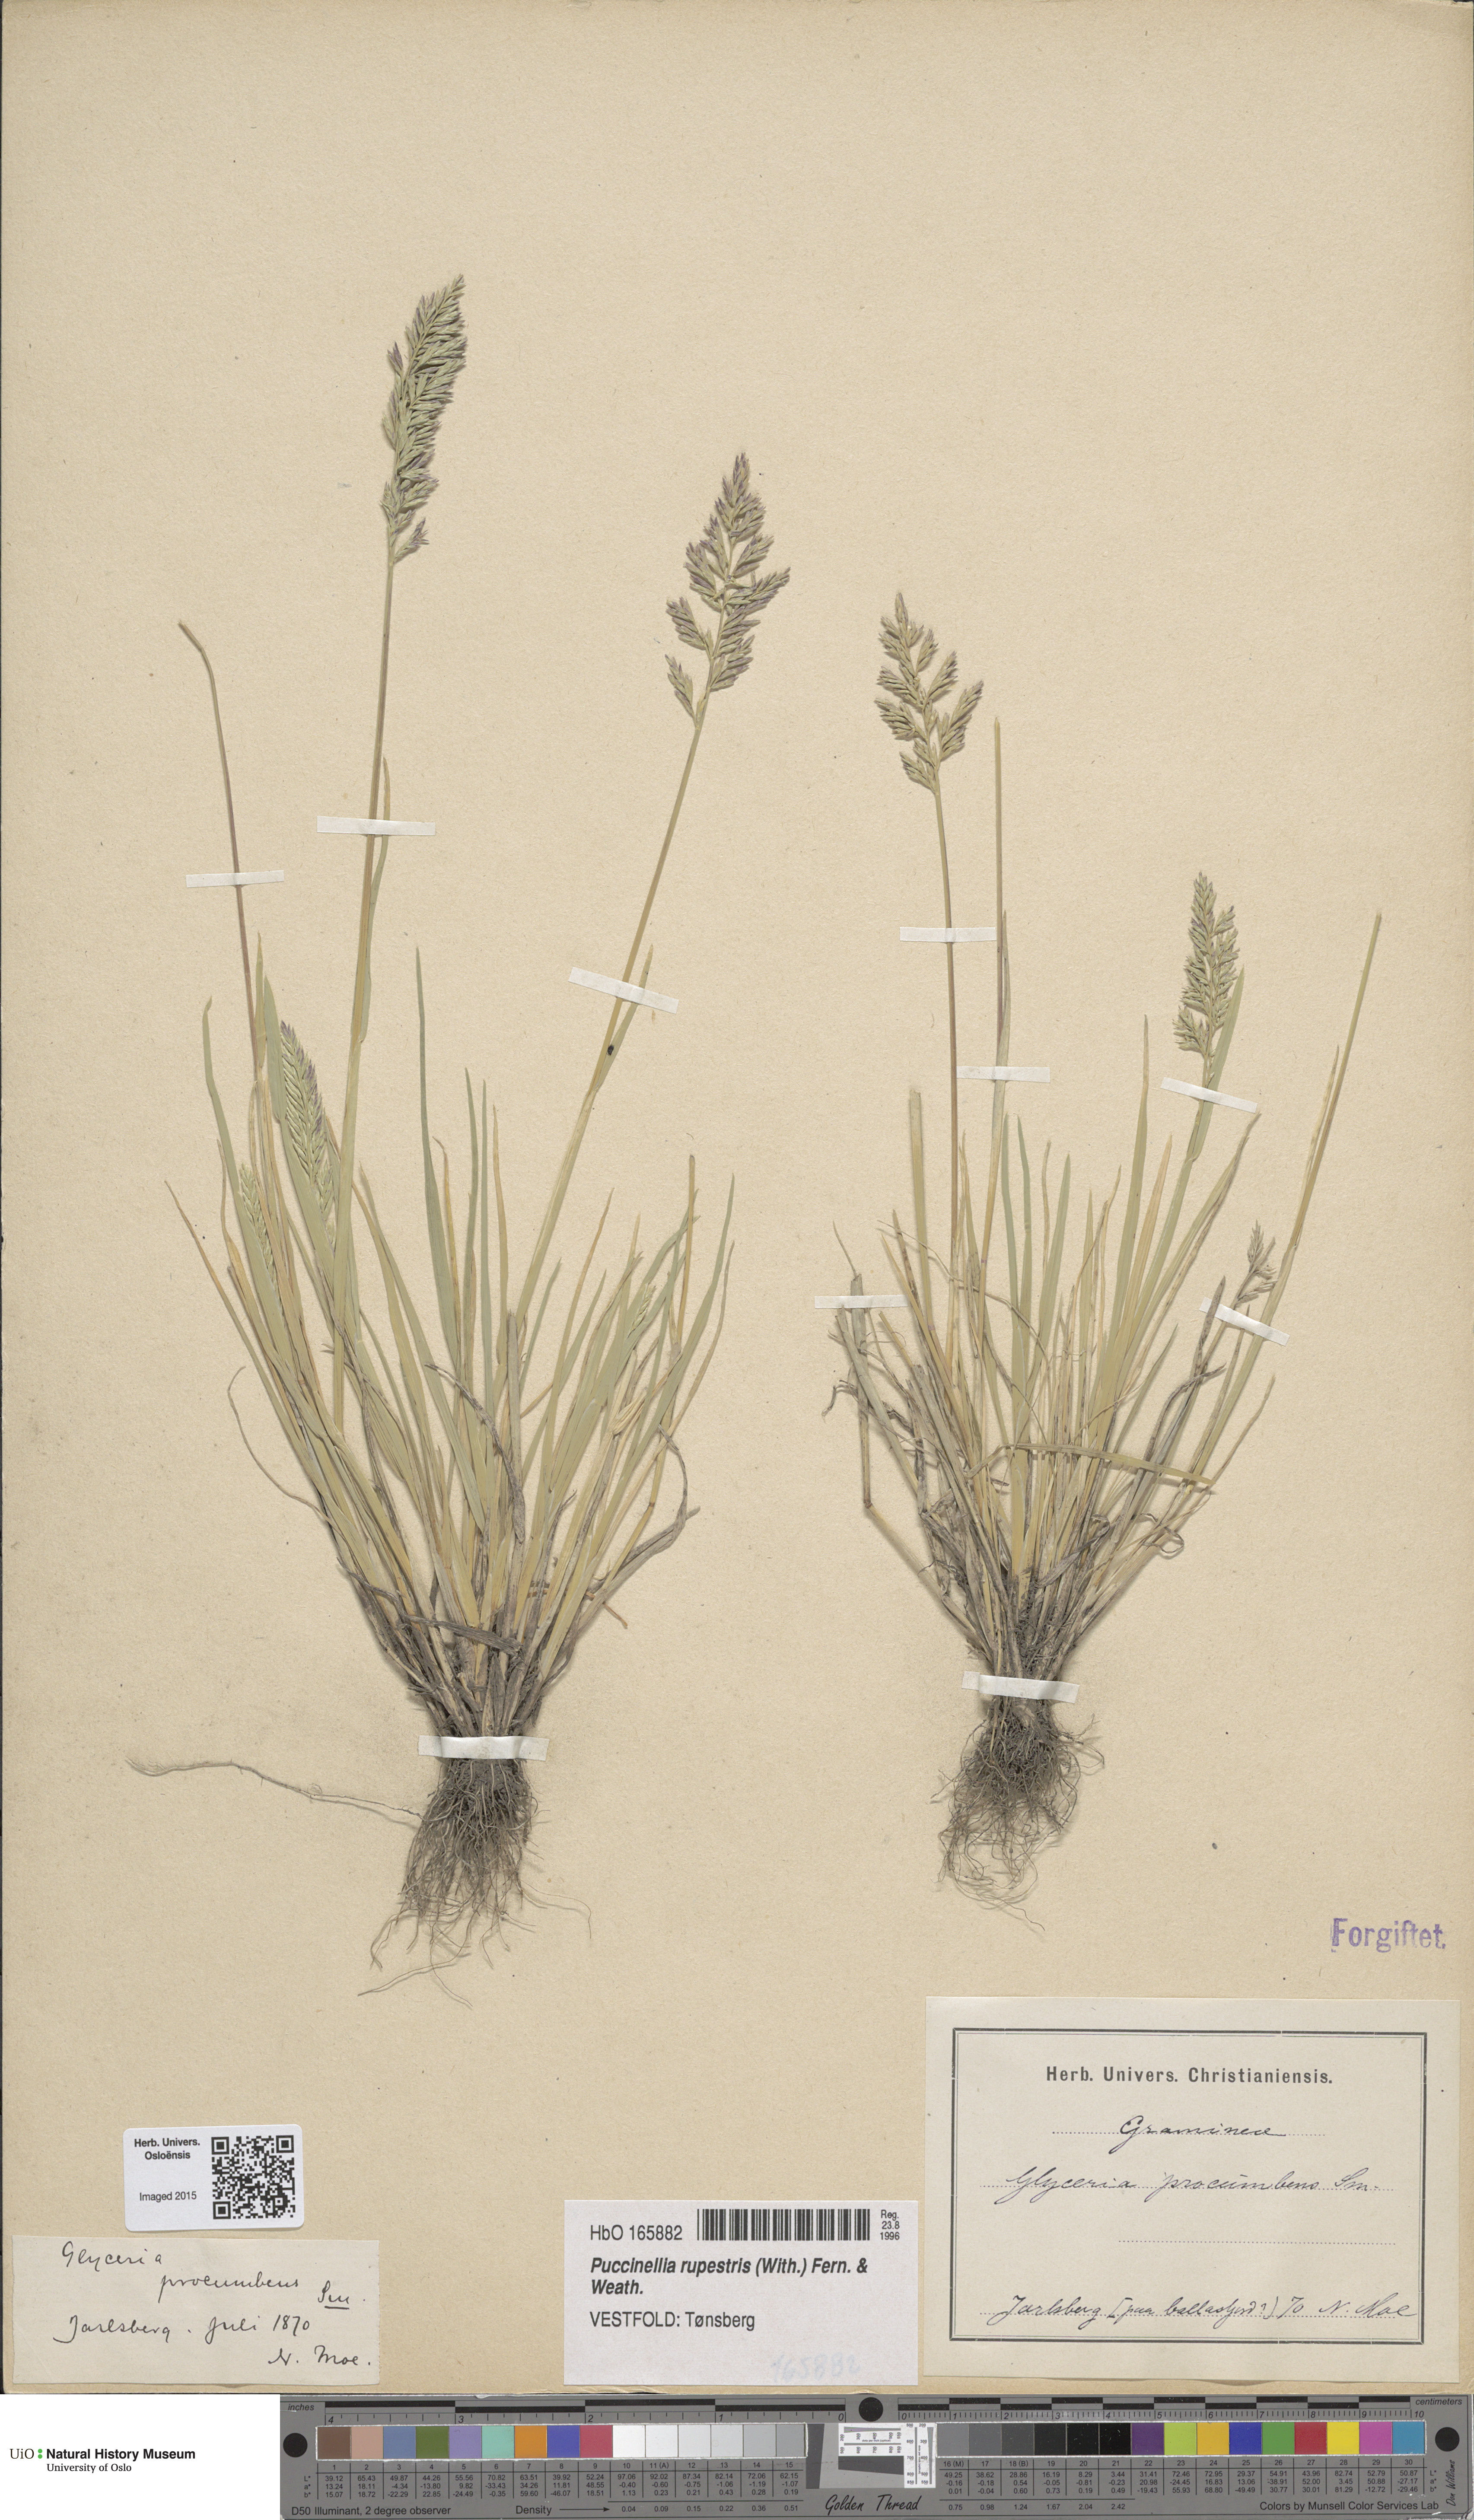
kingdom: Plantae
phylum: Tracheophyta
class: Liliopsida
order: Poales
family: Poaceae
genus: Puccinellia
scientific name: Puccinellia rupestris
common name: Stiff saltmarsh-grass
